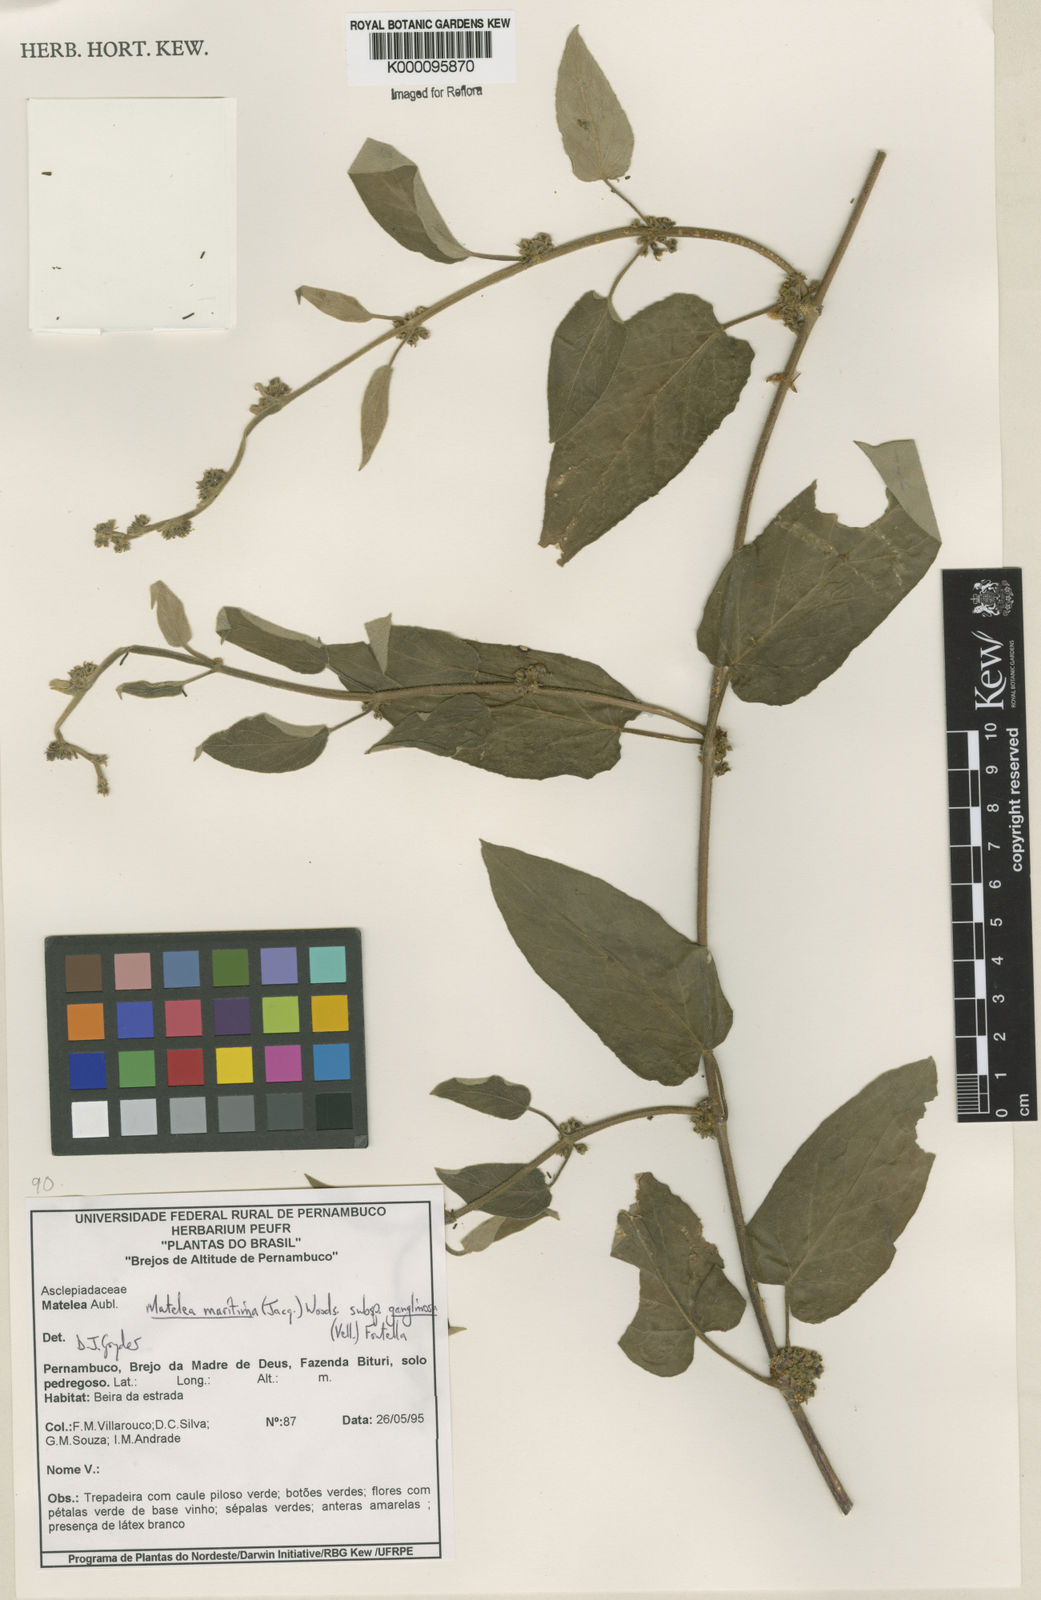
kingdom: Plantae
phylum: Tracheophyta
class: Magnoliopsida
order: Gentianales
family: Apocynaceae
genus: Ibatia
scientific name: Ibatia ganglinosa
